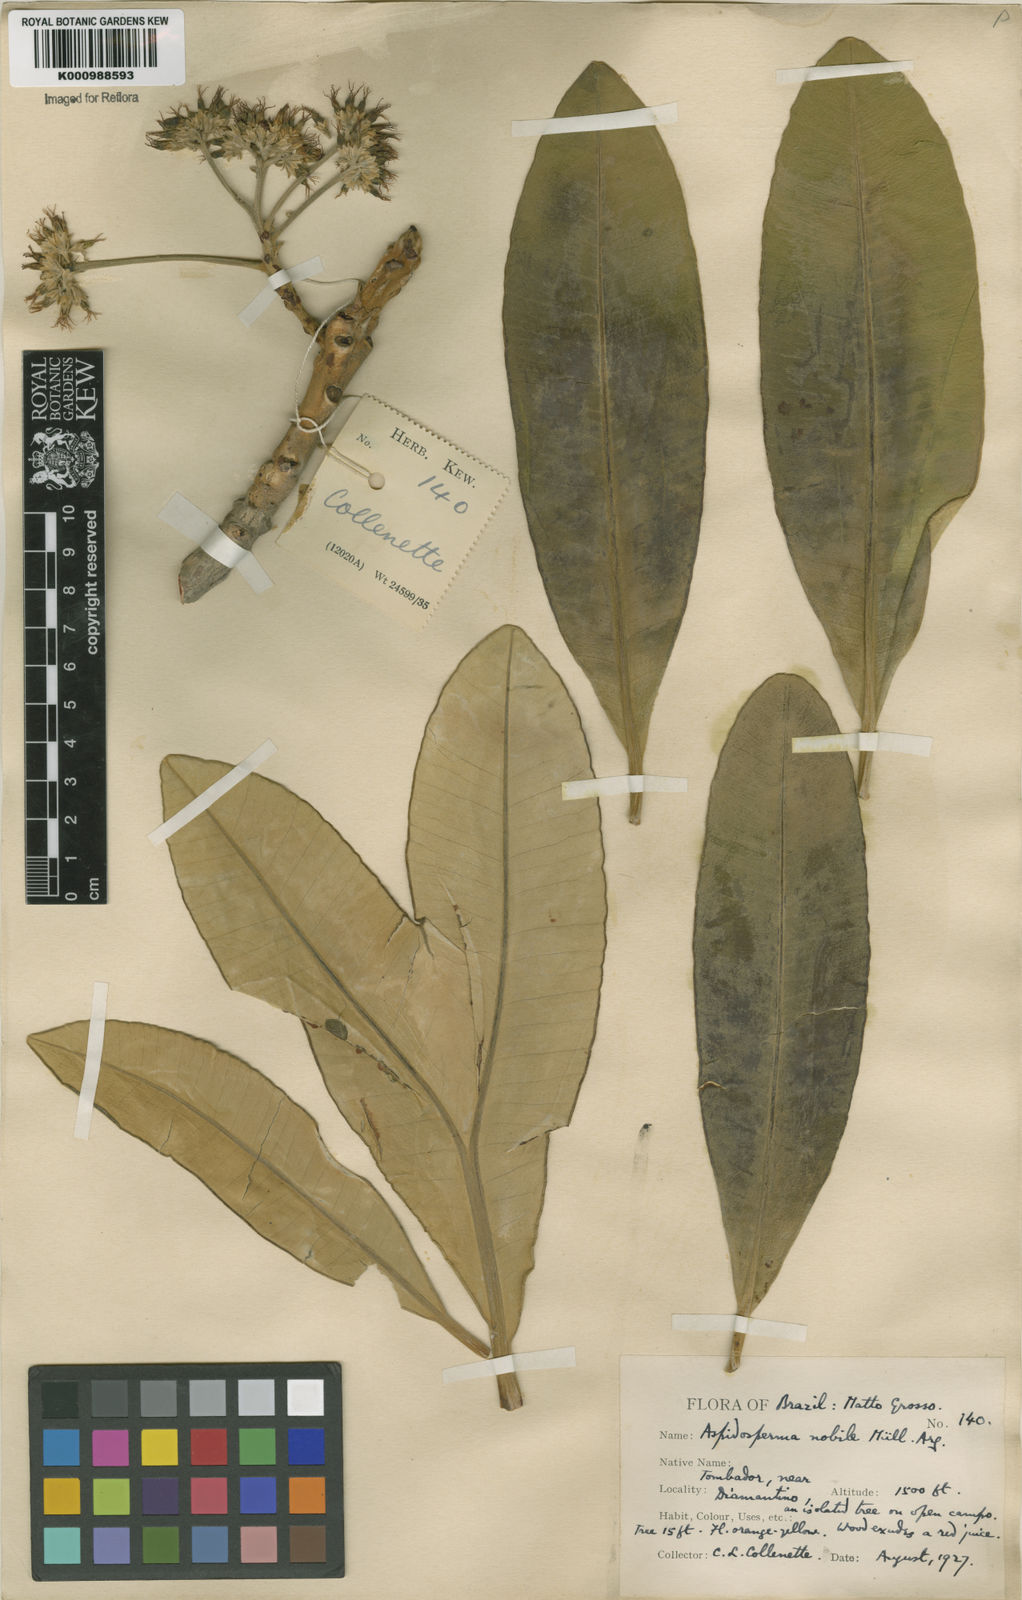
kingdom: Plantae
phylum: Tracheophyta
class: Magnoliopsida
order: Gentianales
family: Apocynaceae
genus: Aspidosperma
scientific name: Aspidosperma
